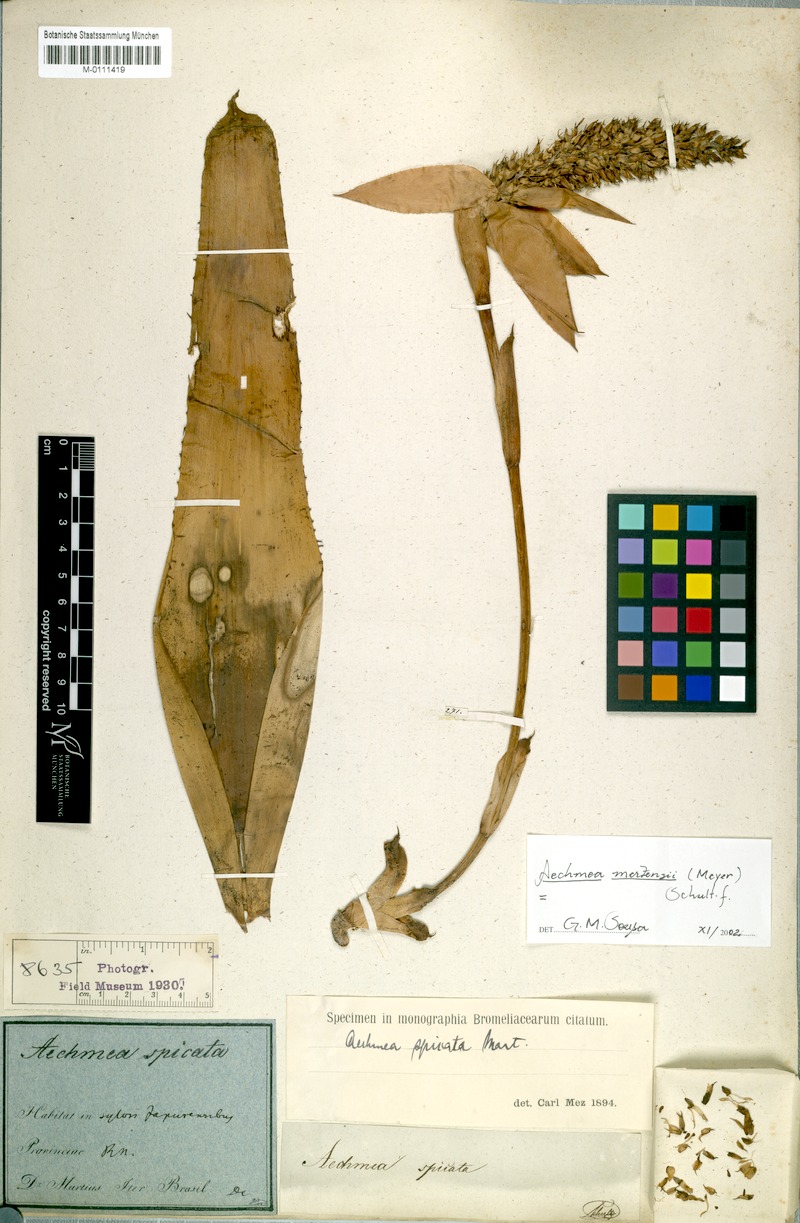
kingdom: Plantae
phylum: Tracheophyta
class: Liliopsida
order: Poales
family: Bromeliaceae
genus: Aechmea
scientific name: Aechmea mertensii
